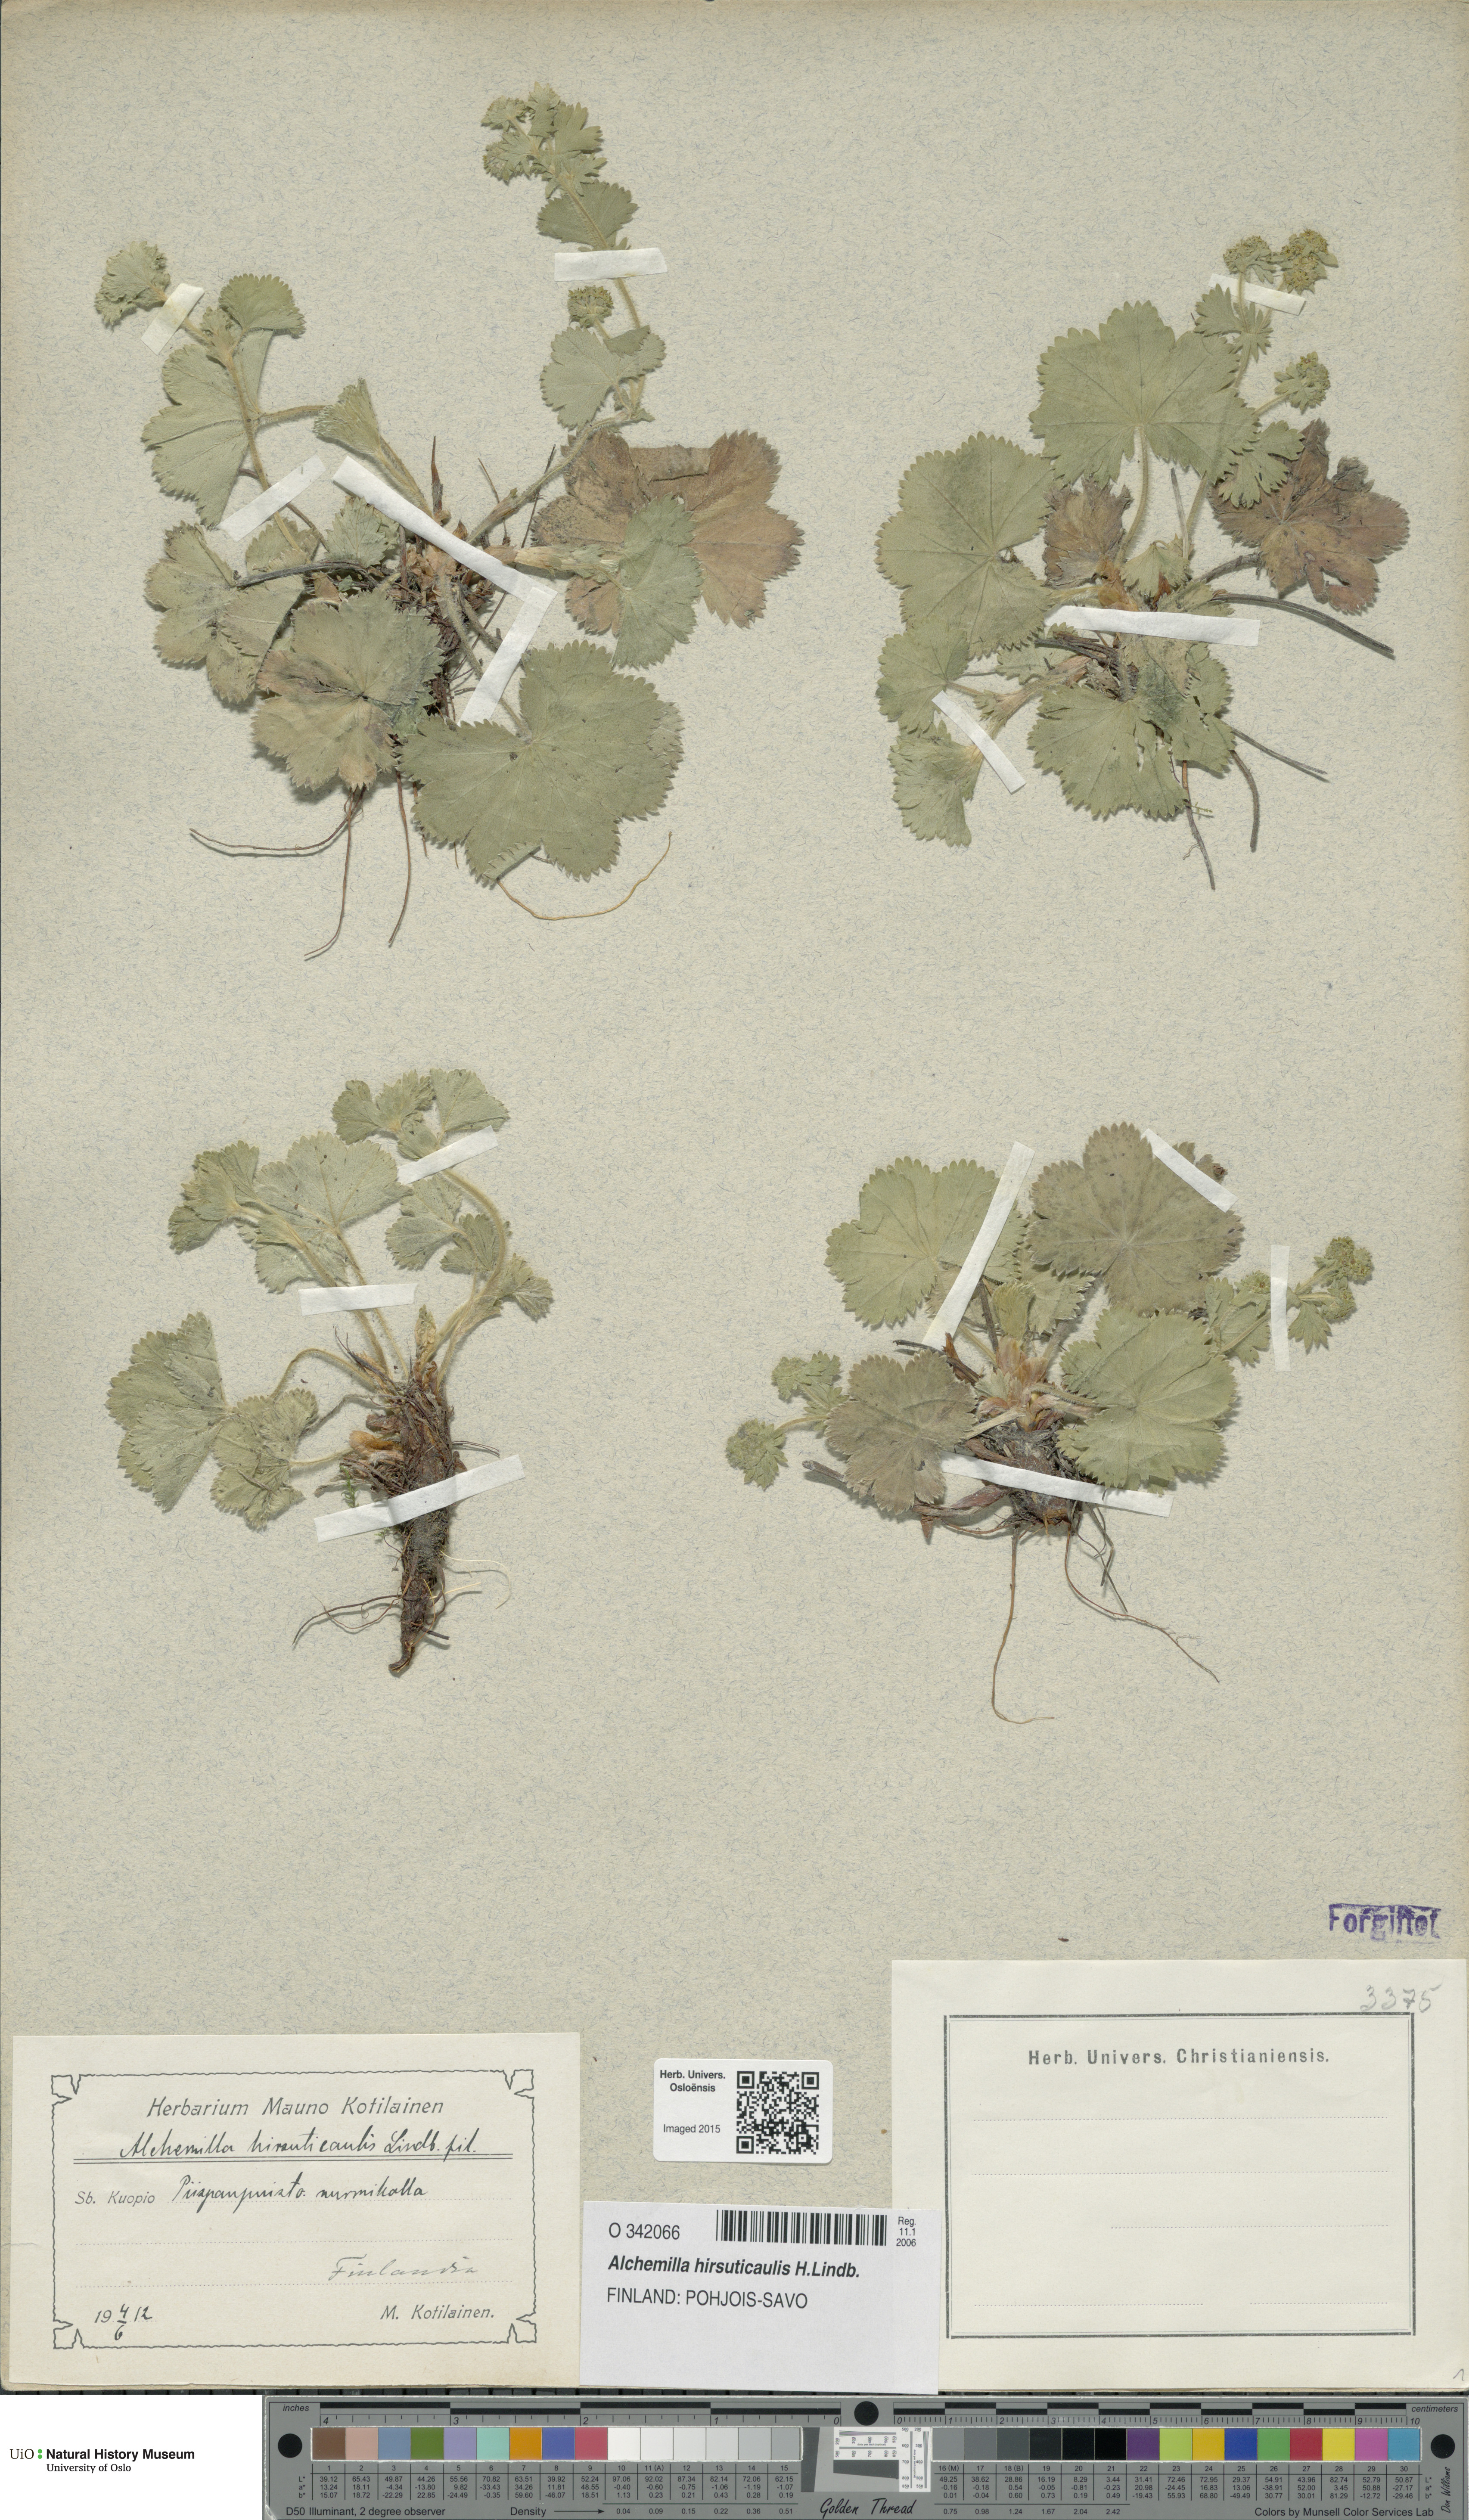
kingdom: Plantae
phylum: Tracheophyta
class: Magnoliopsida
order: Rosales
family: Rosaceae
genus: Alchemilla
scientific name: Alchemilla hirsuticaulis
